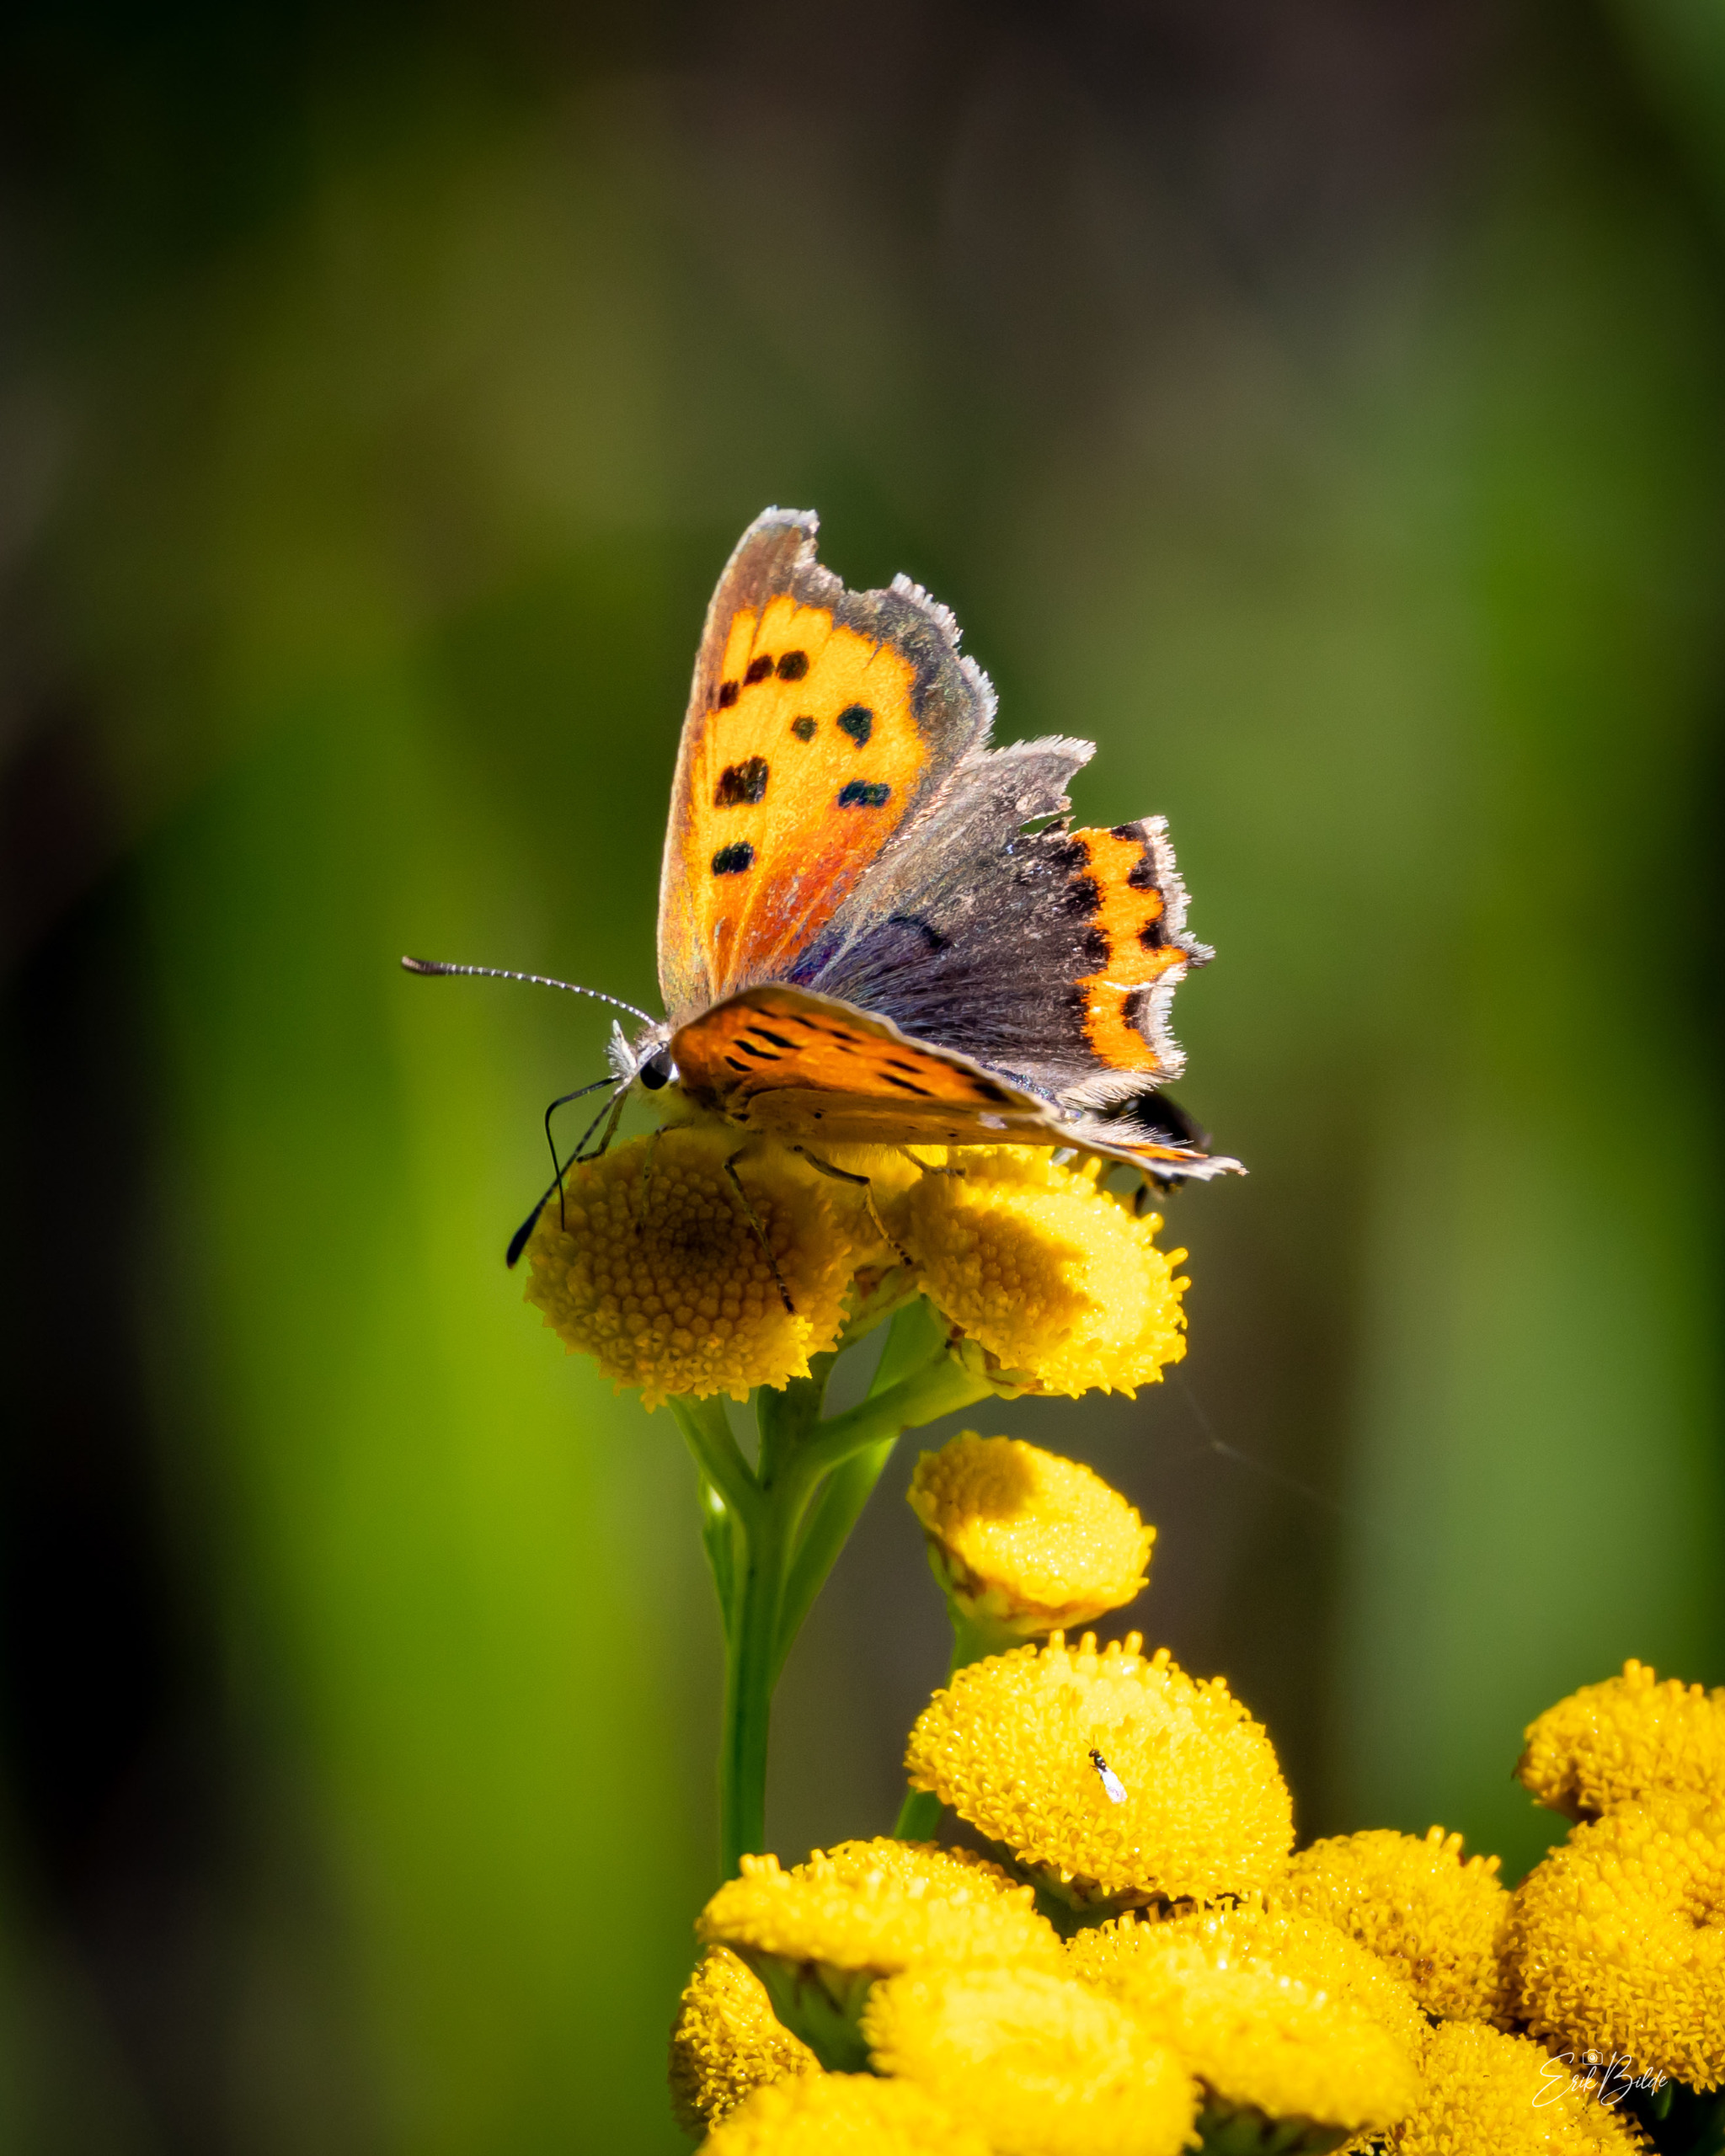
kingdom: Animalia
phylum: Arthropoda
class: Insecta
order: Lepidoptera
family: Lycaenidae
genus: Lycaena
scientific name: Lycaena phlaeas
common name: Lille ildfugl
